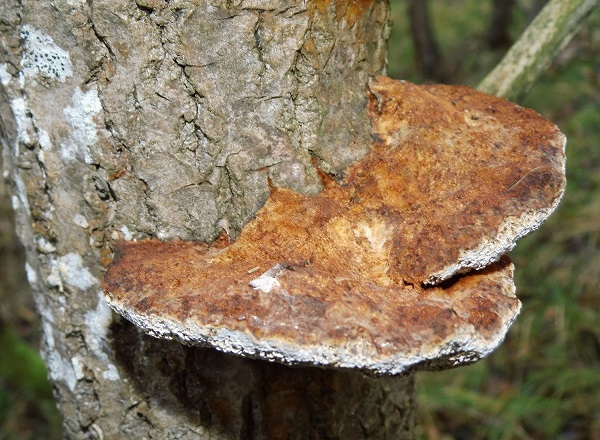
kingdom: Fungi
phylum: Basidiomycota
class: Agaricomycetes
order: Hymenochaetales
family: Hymenochaetaceae
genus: Inocutis
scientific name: Inocutis rheades
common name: ræve-spejlporesvamp
